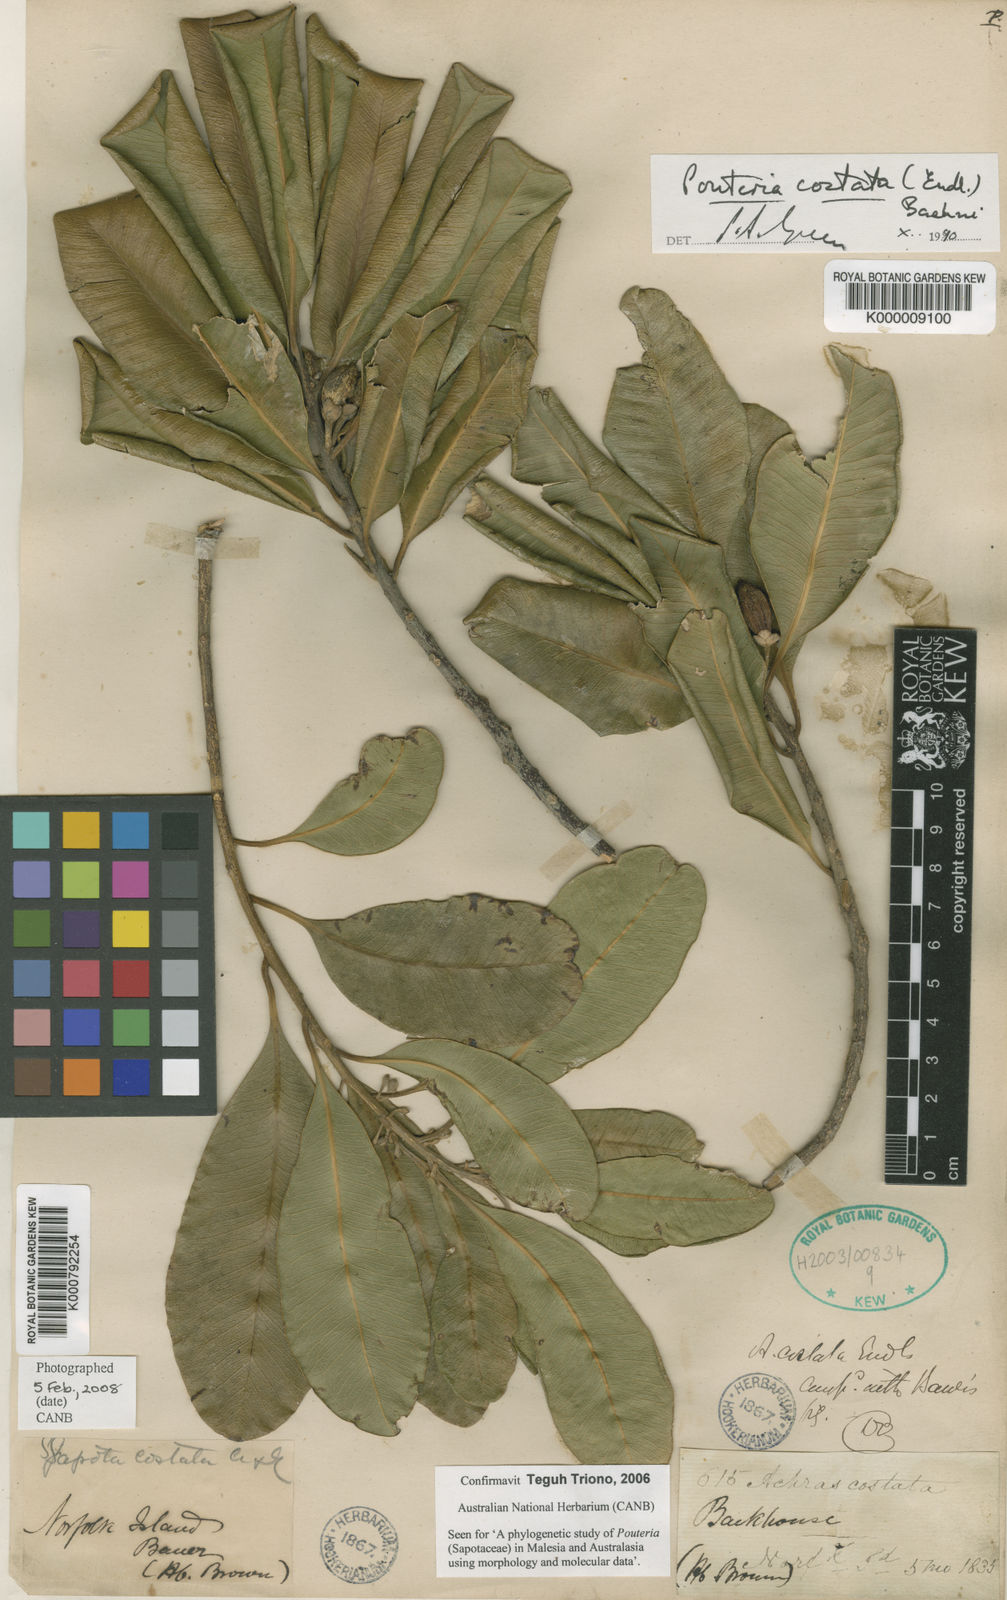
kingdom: Plantae
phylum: Tracheophyta
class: Magnoliopsida
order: Ericales
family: Sapotaceae
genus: Planchonella
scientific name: Planchonella costata
